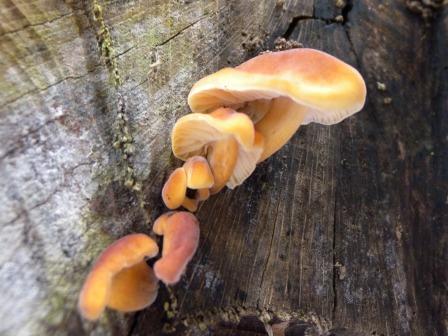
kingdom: Fungi
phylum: Basidiomycota
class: Agaricomycetes
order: Agaricales
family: Physalacriaceae
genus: Flammulina
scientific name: Flammulina velutipes
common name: gul fløjlsfod
